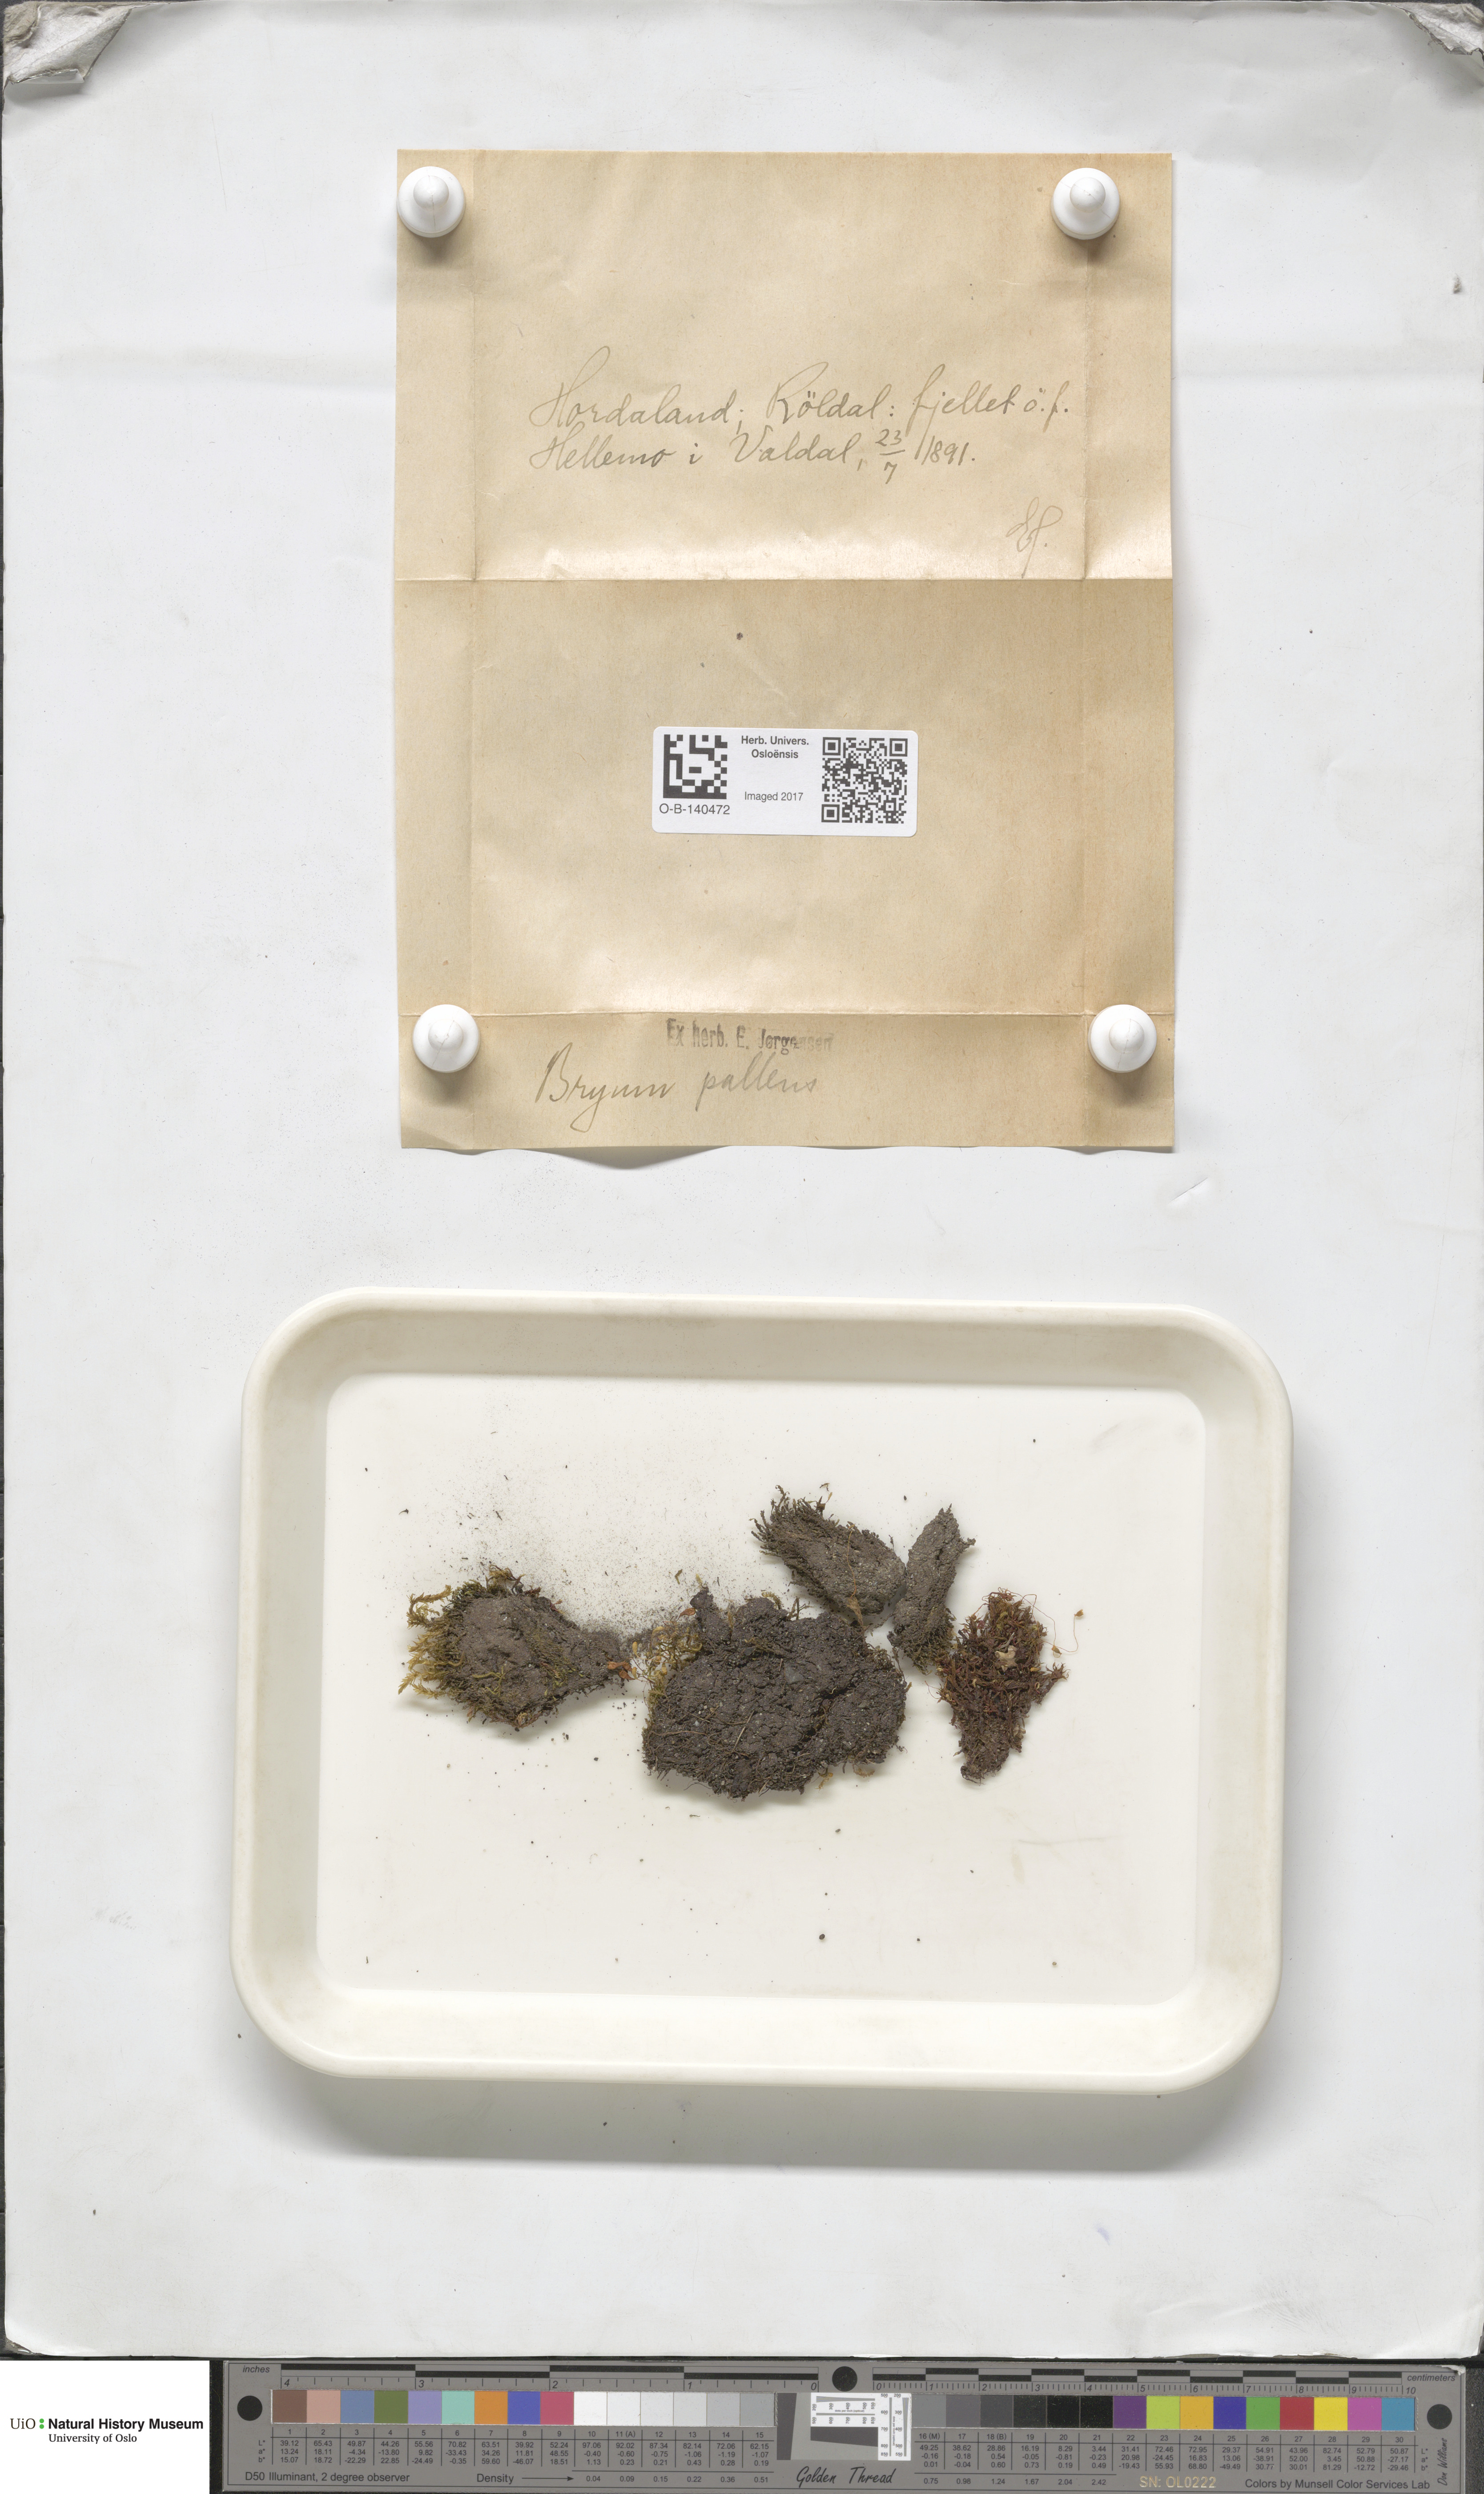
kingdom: Plantae
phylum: Bryophyta
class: Bryopsida
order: Bryales
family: Bryaceae
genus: Ptychostomum
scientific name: Ptychostomum pallens
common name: Pale thread-moss
